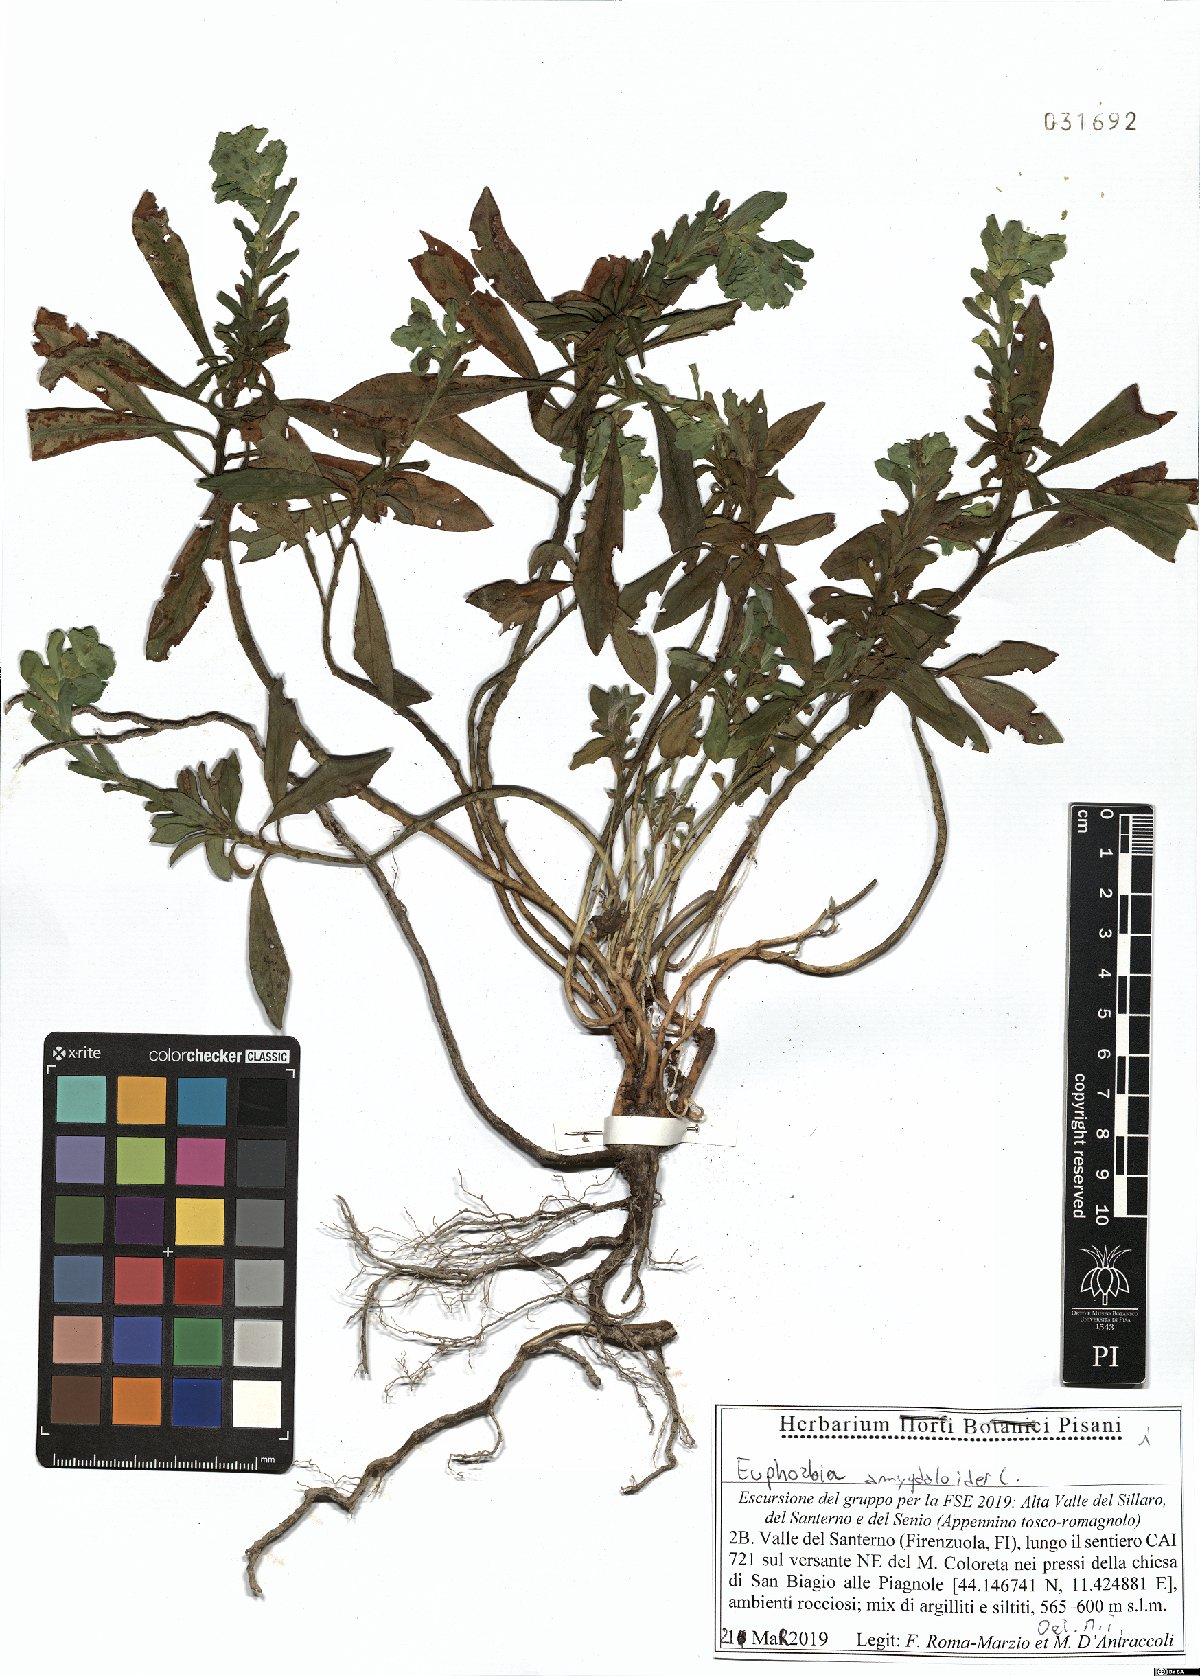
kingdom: Plantae
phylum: Tracheophyta
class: Magnoliopsida
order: Malpighiales
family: Euphorbiaceae
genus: Euphorbia
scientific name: Euphorbia amygdaloides
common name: Wood spurge
